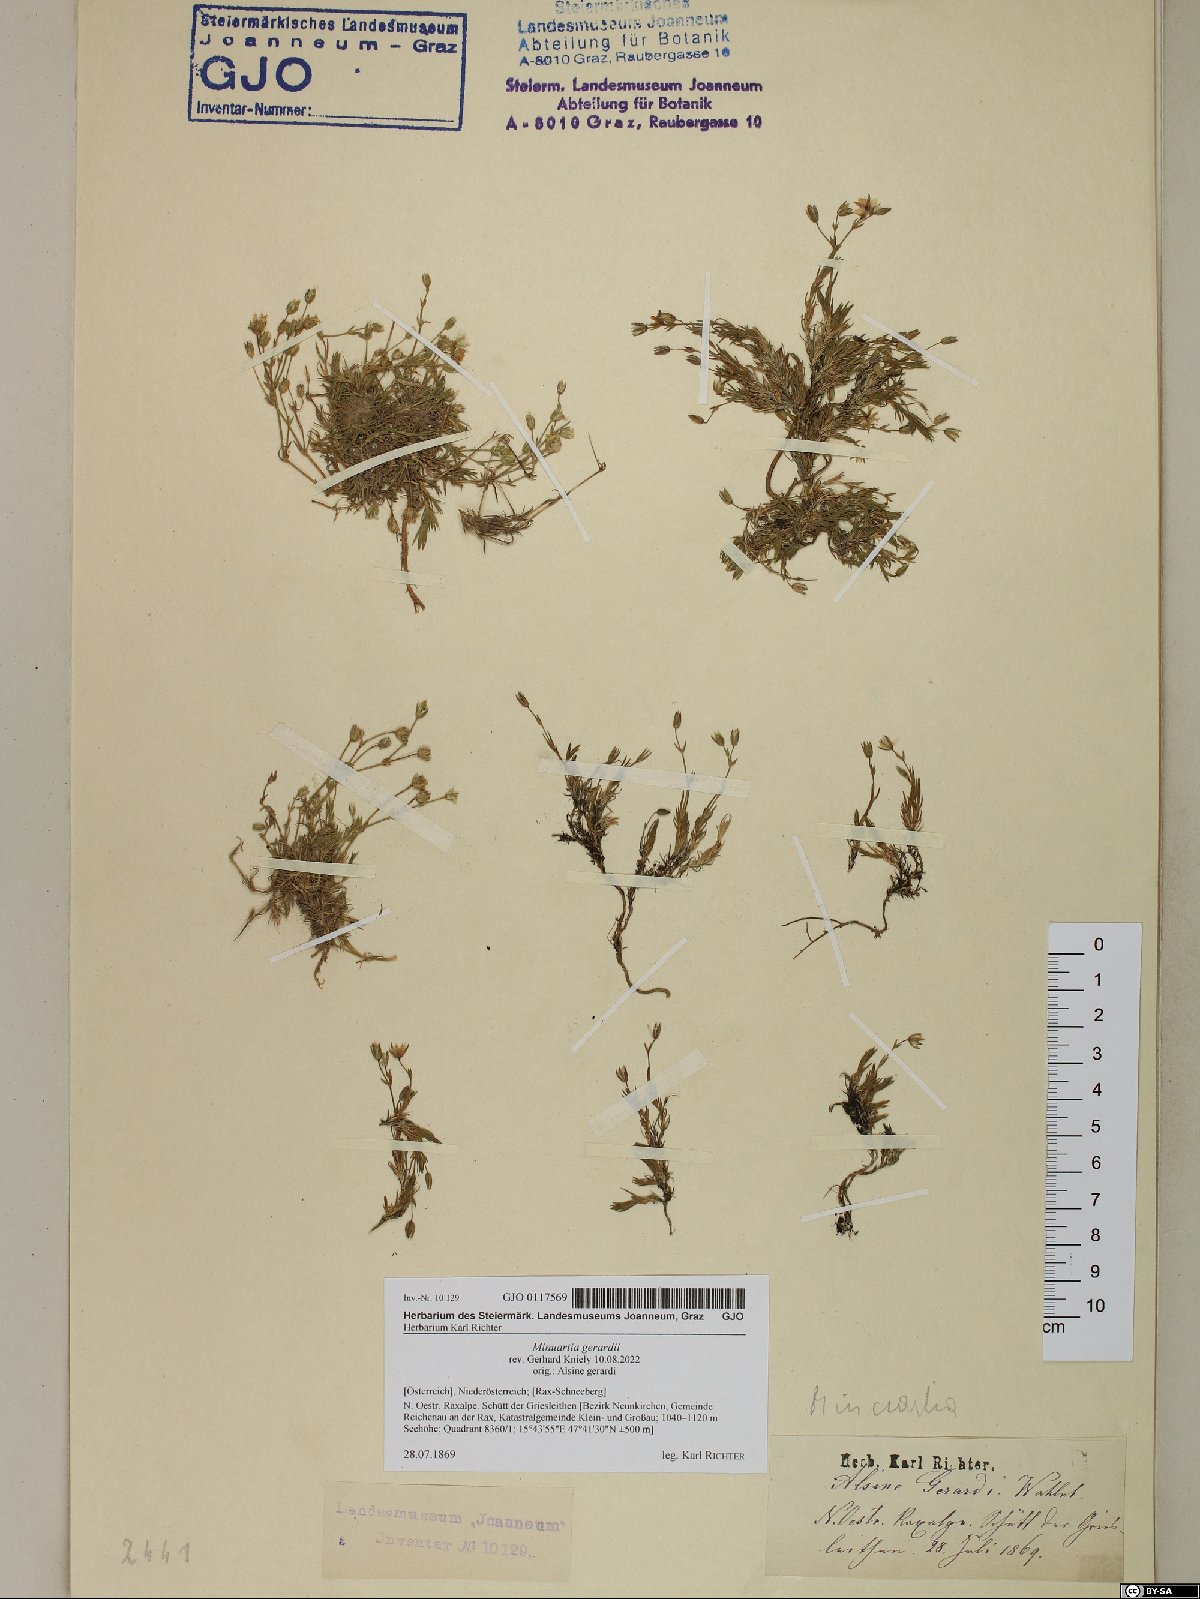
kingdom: Plantae
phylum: Tracheophyta
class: Magnoliopsida
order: Caryophyllales
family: Caryophyllaceae
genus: Sabulina
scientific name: Sabulina verna
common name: Spring sandwort
